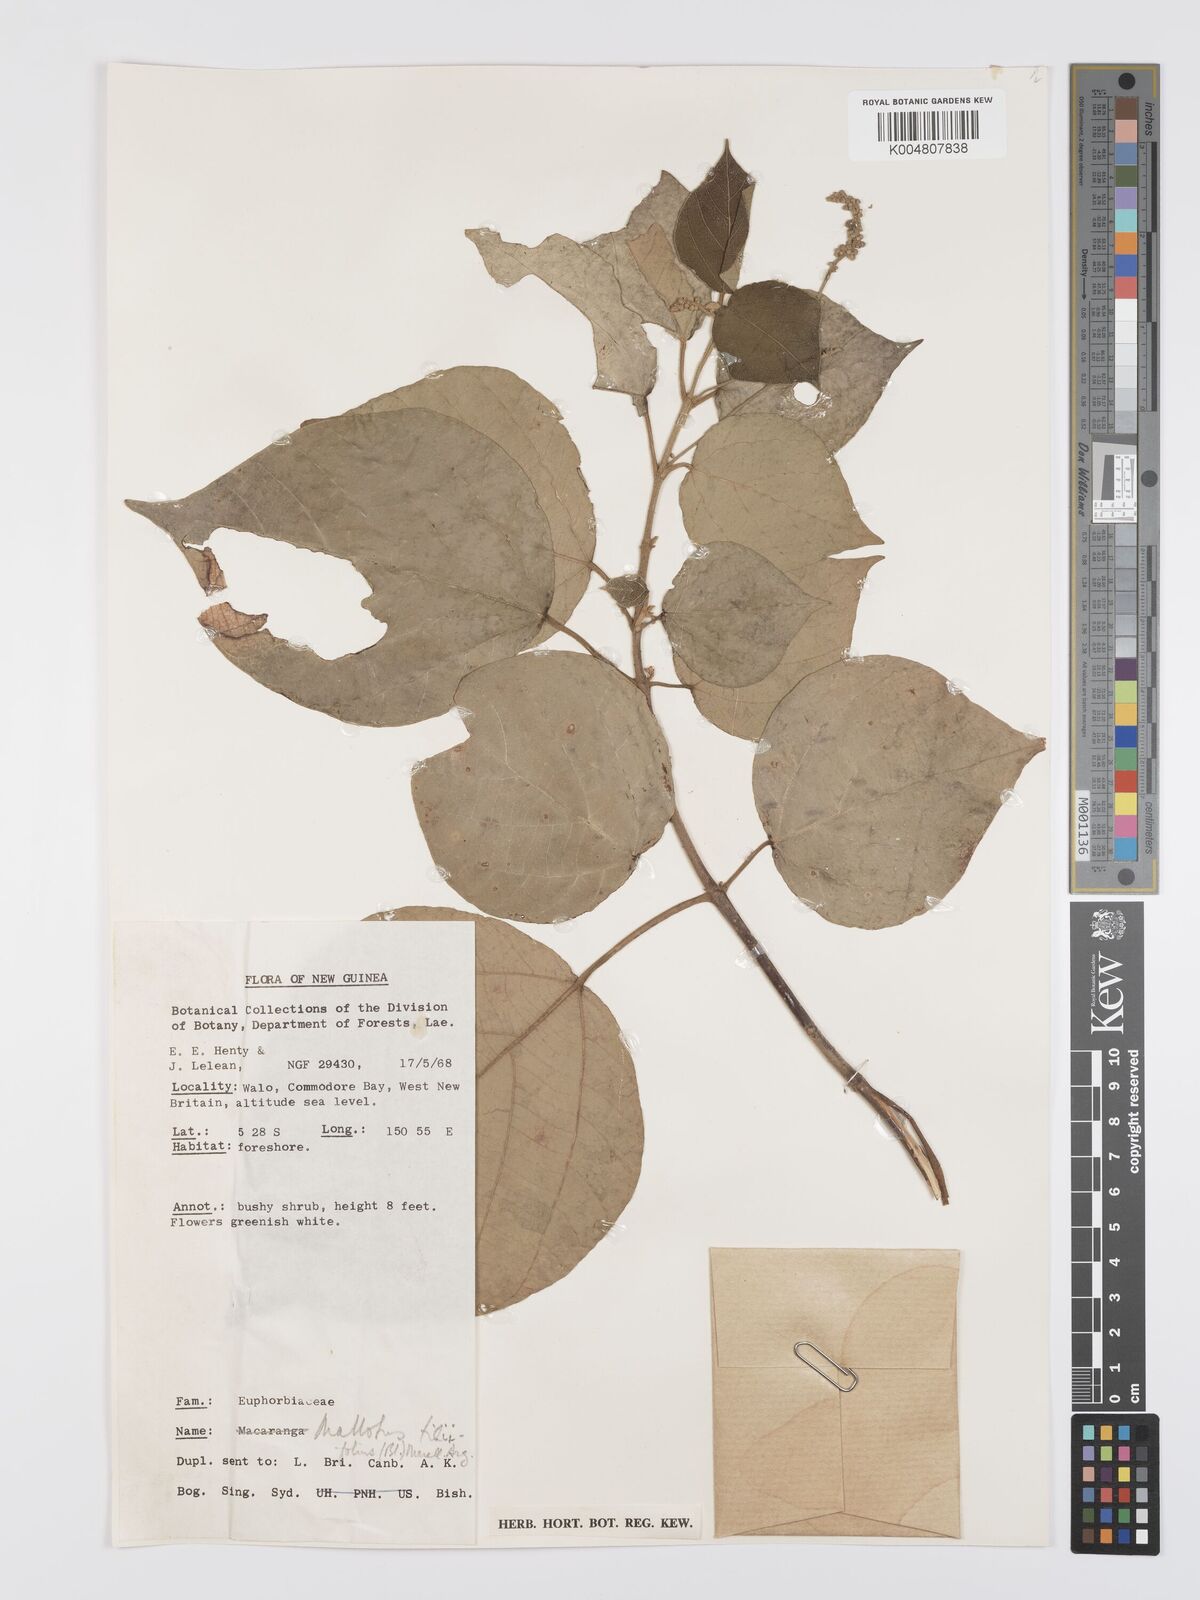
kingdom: Plantae
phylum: Tracheophyta
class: Magnoliopsida
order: Malpighiales
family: Euphorbiaceae
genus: Mallotus
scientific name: Mallotus tiliifolius
